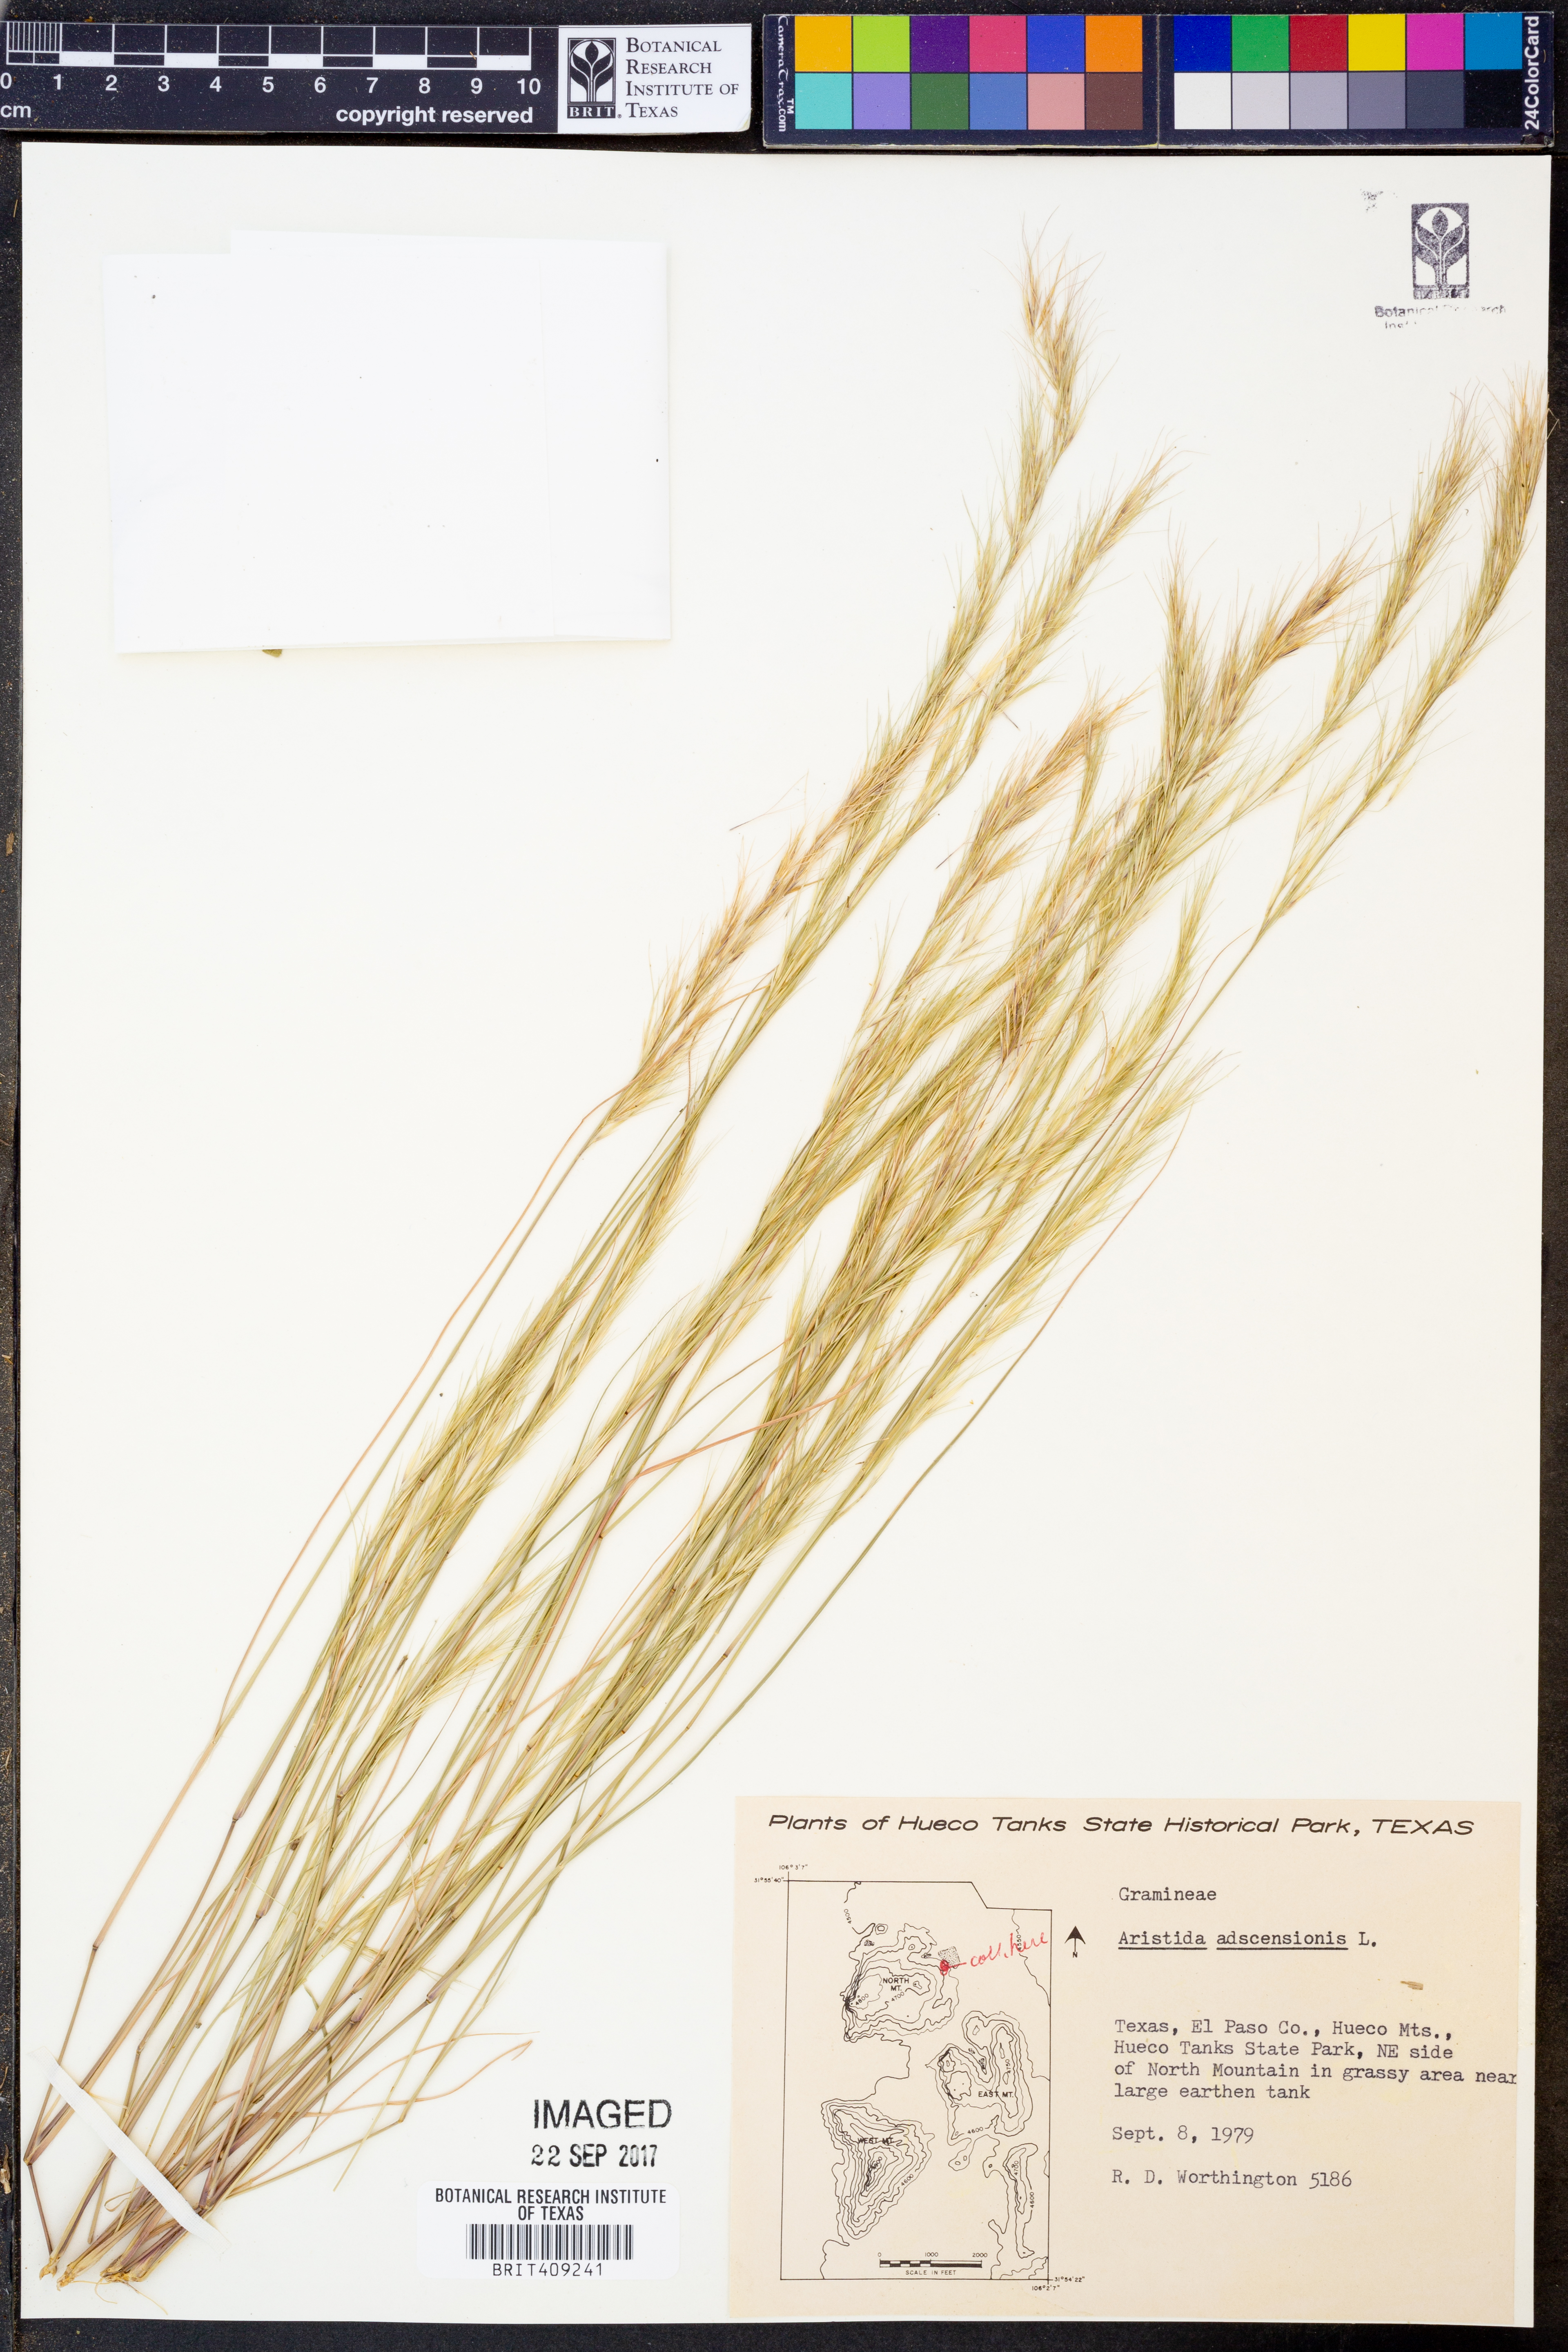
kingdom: Plantae
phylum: Tracheophyta
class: Liliopsida
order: Poales
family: Poaceae
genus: Aristida
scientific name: Aristida adscensionis
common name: Sixweeks threeawn
